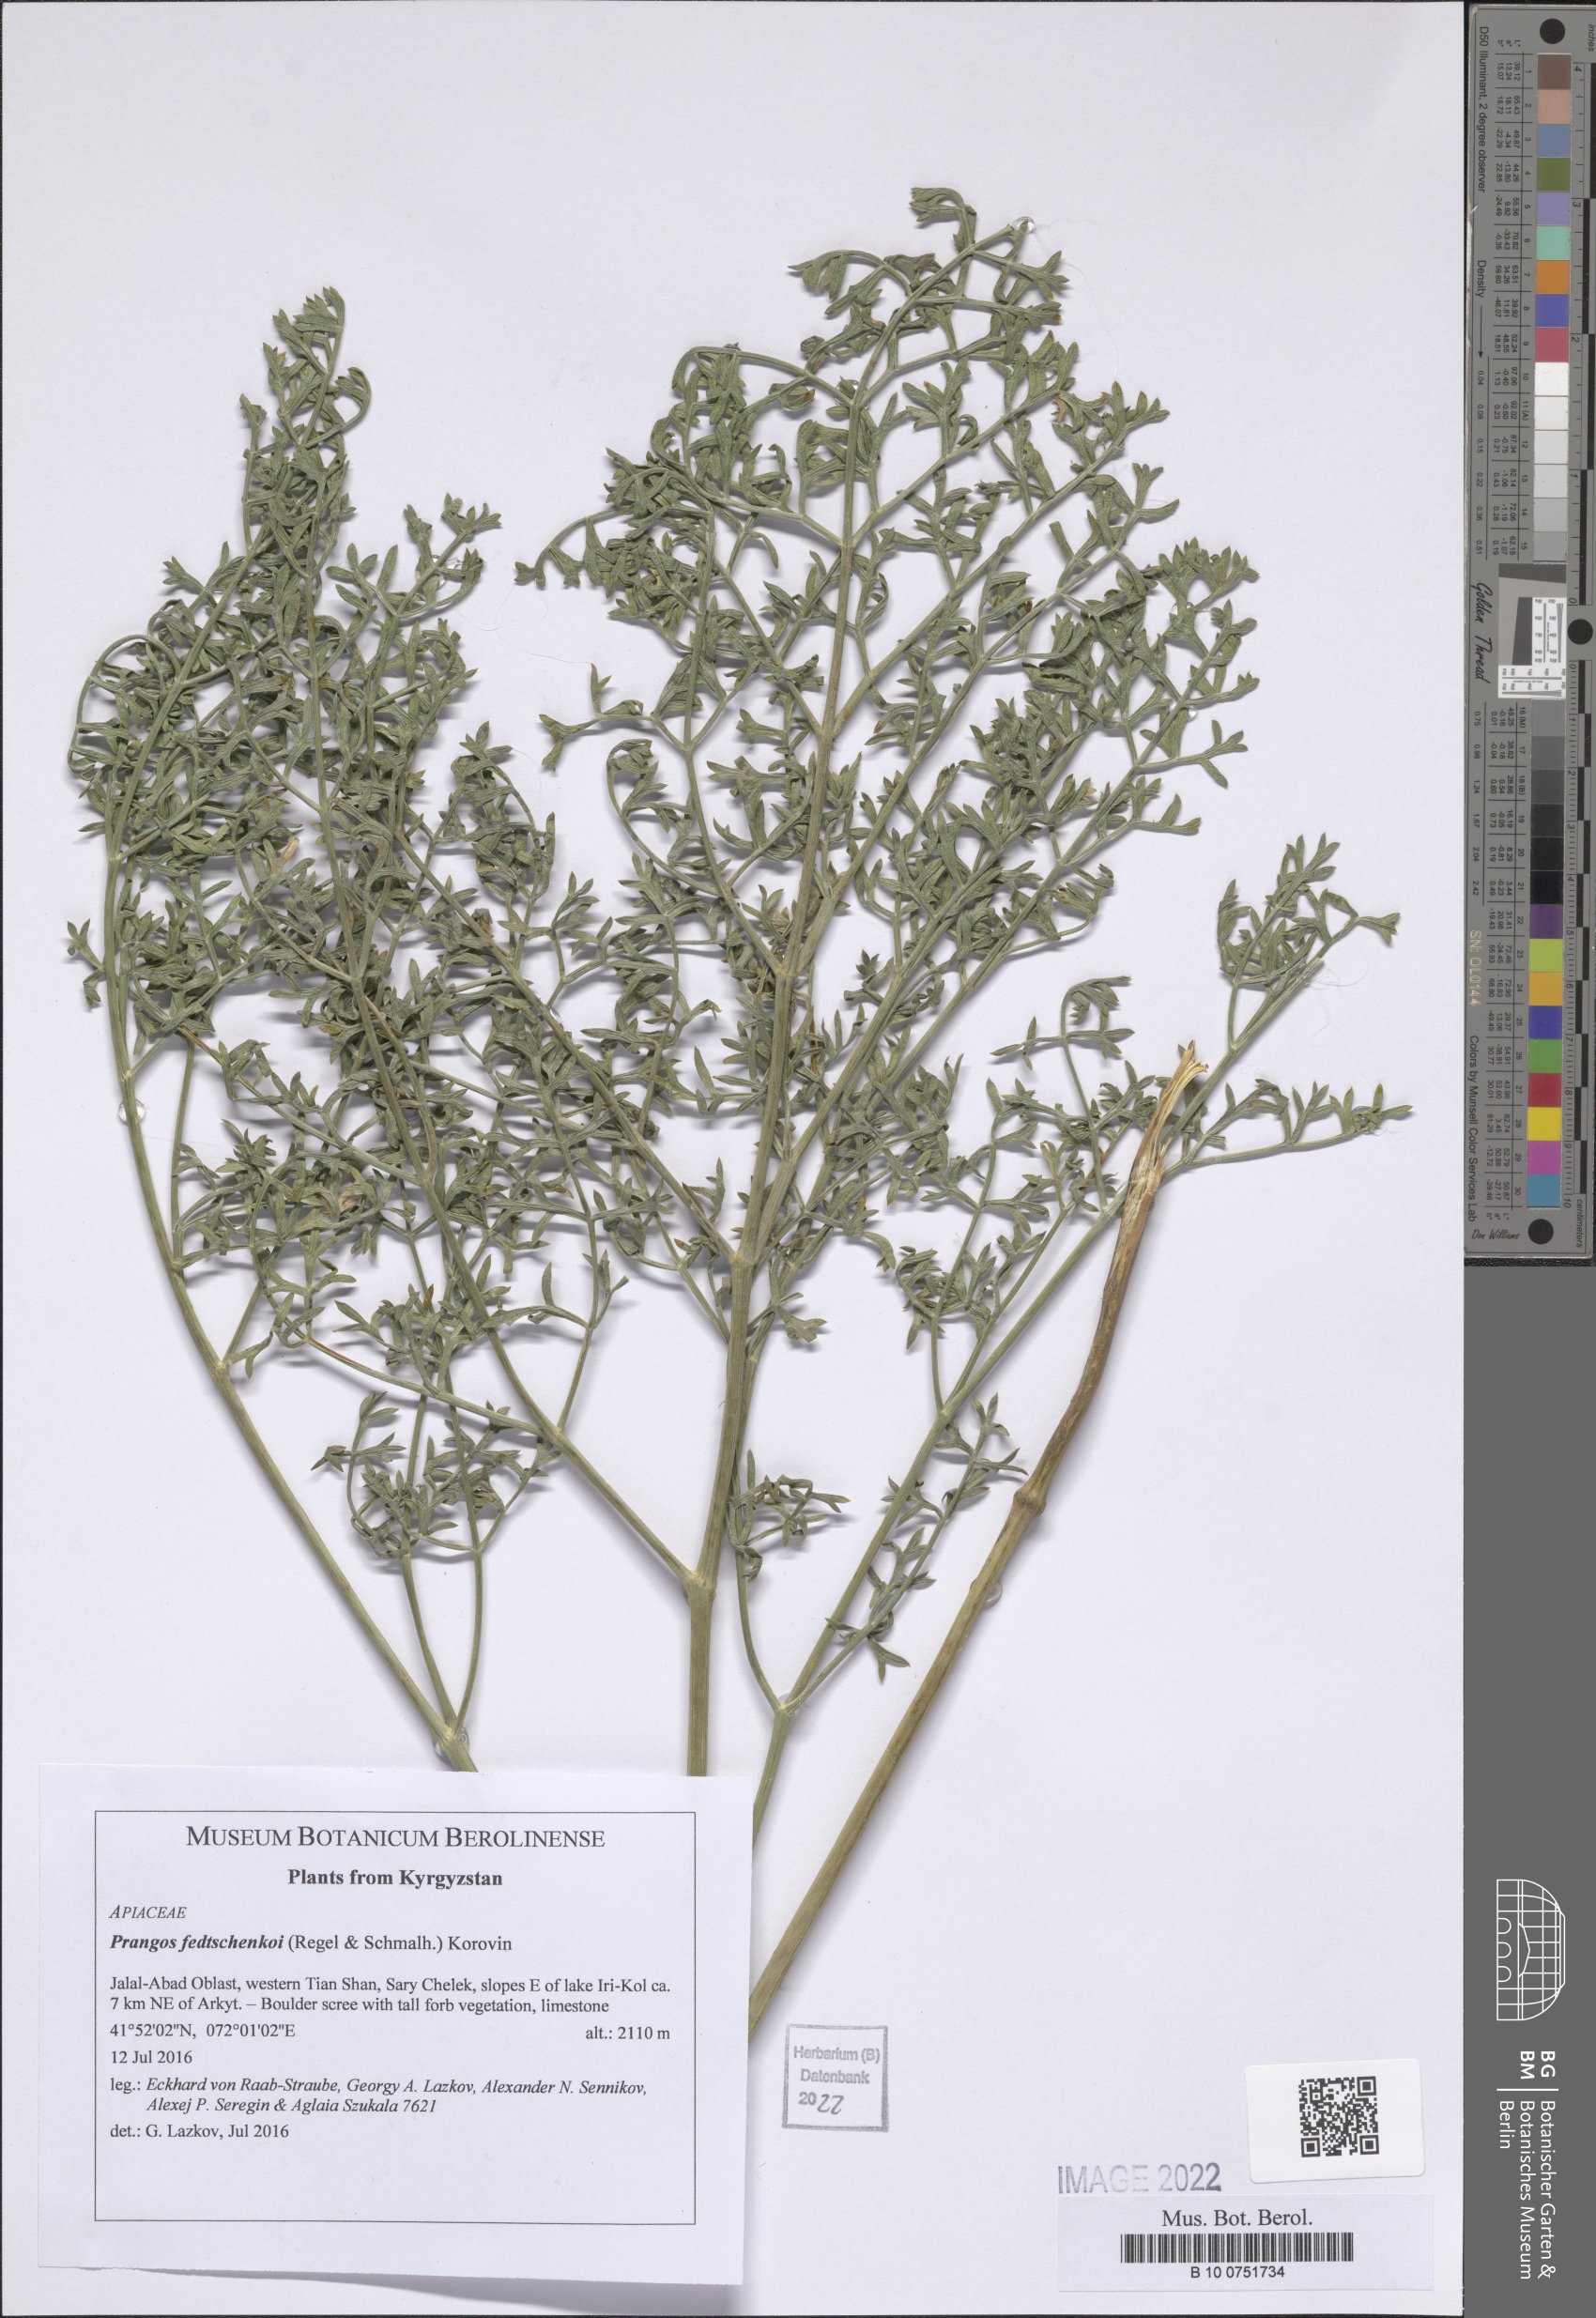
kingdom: Plantae
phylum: Tracheophyta
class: Magnoliopsida
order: Apiales
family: Apiaceae
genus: Prangos
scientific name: Prangos pabularia
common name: Yugan
